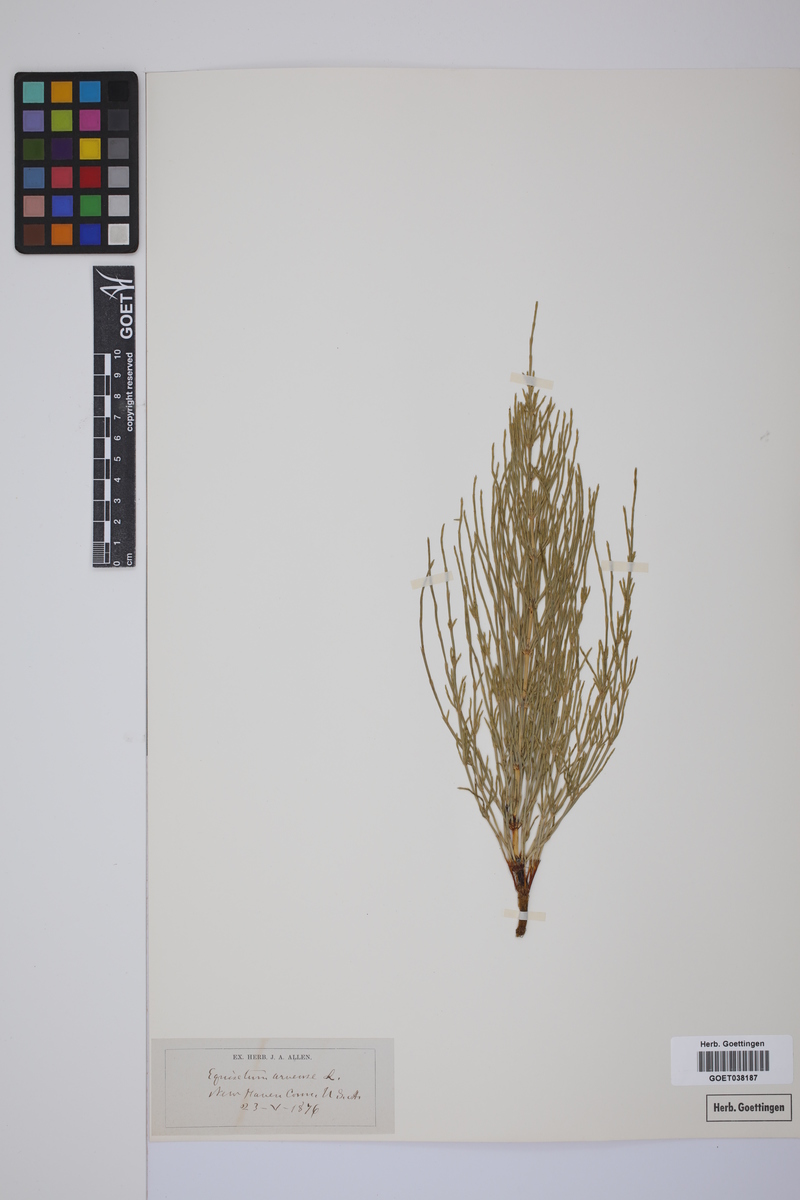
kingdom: Plantae
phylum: Tracheophyta
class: Polypodiopsida
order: Equisetales
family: Equisetaceae
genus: Equisetum
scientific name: Equisetum arvense
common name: Field horsetail
